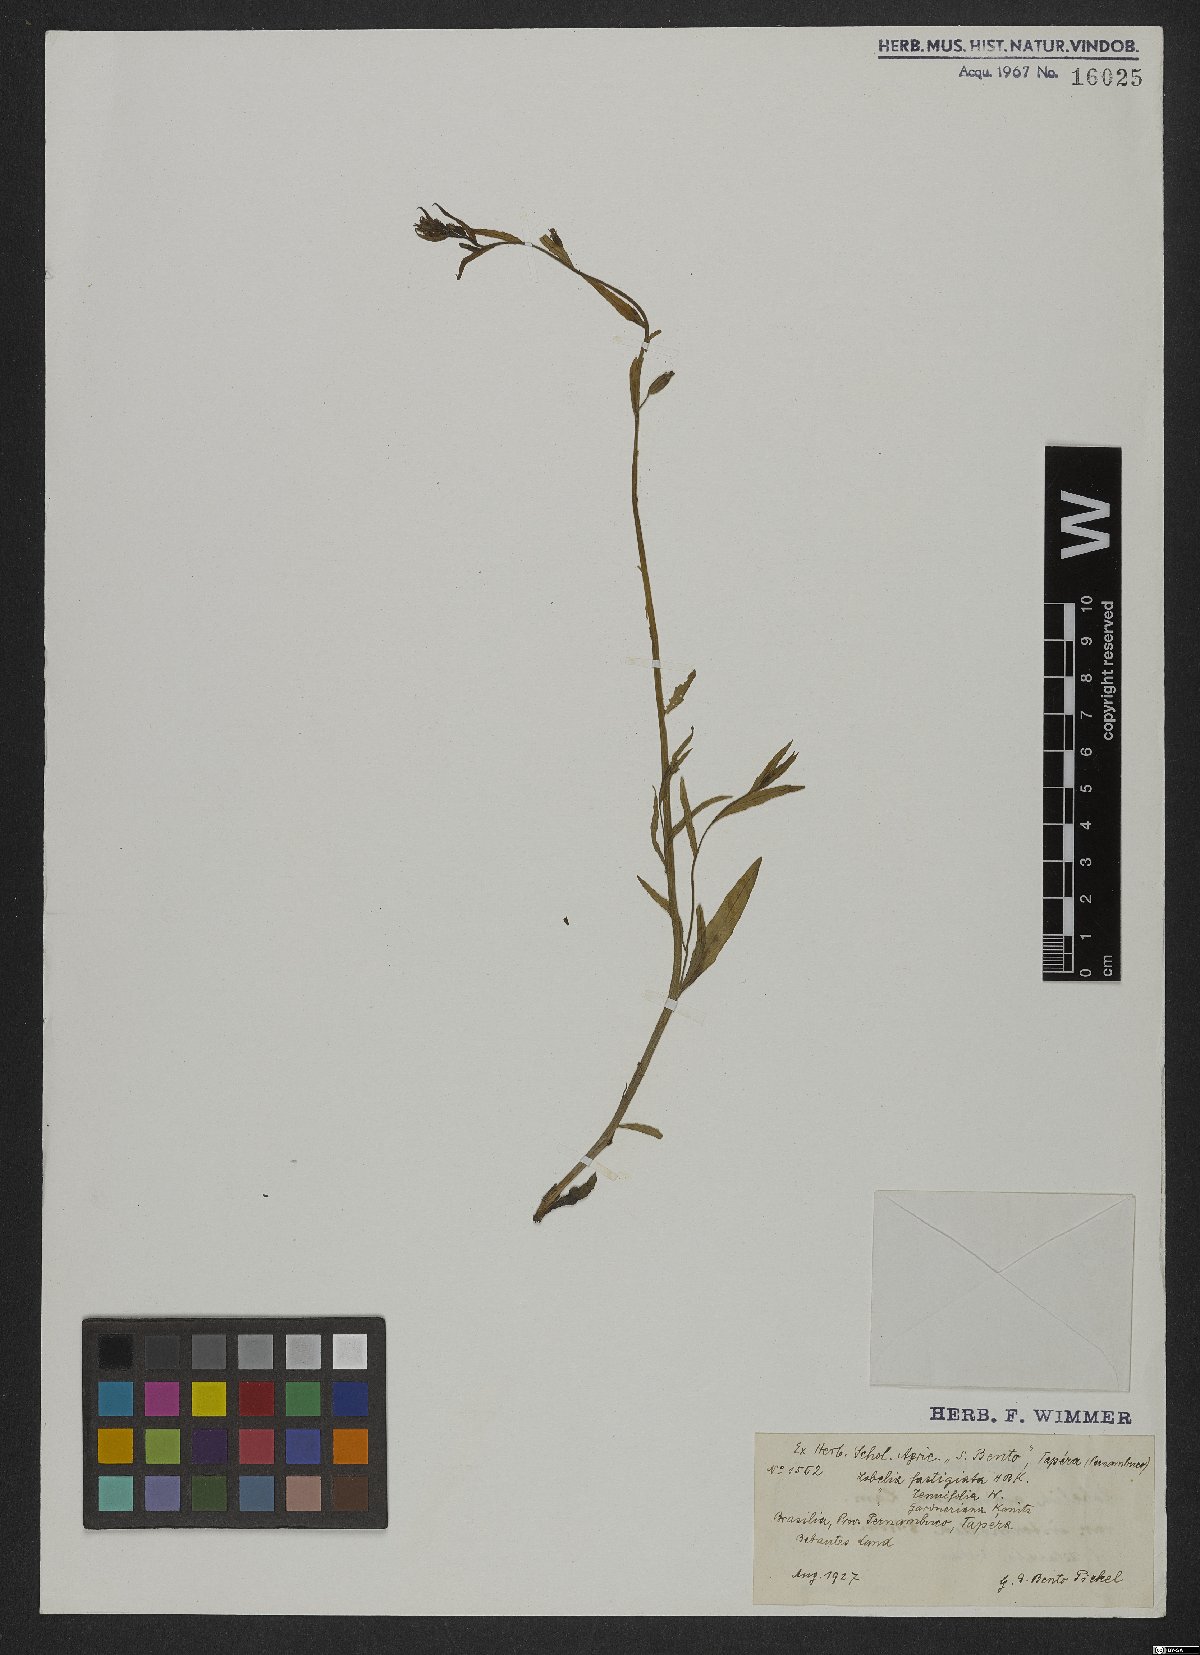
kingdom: Plantae
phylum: Tracheophyta
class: Magnoliopsida
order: Asterales
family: Campanulaceae
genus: Lobelia
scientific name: Lobelia fastigiata
